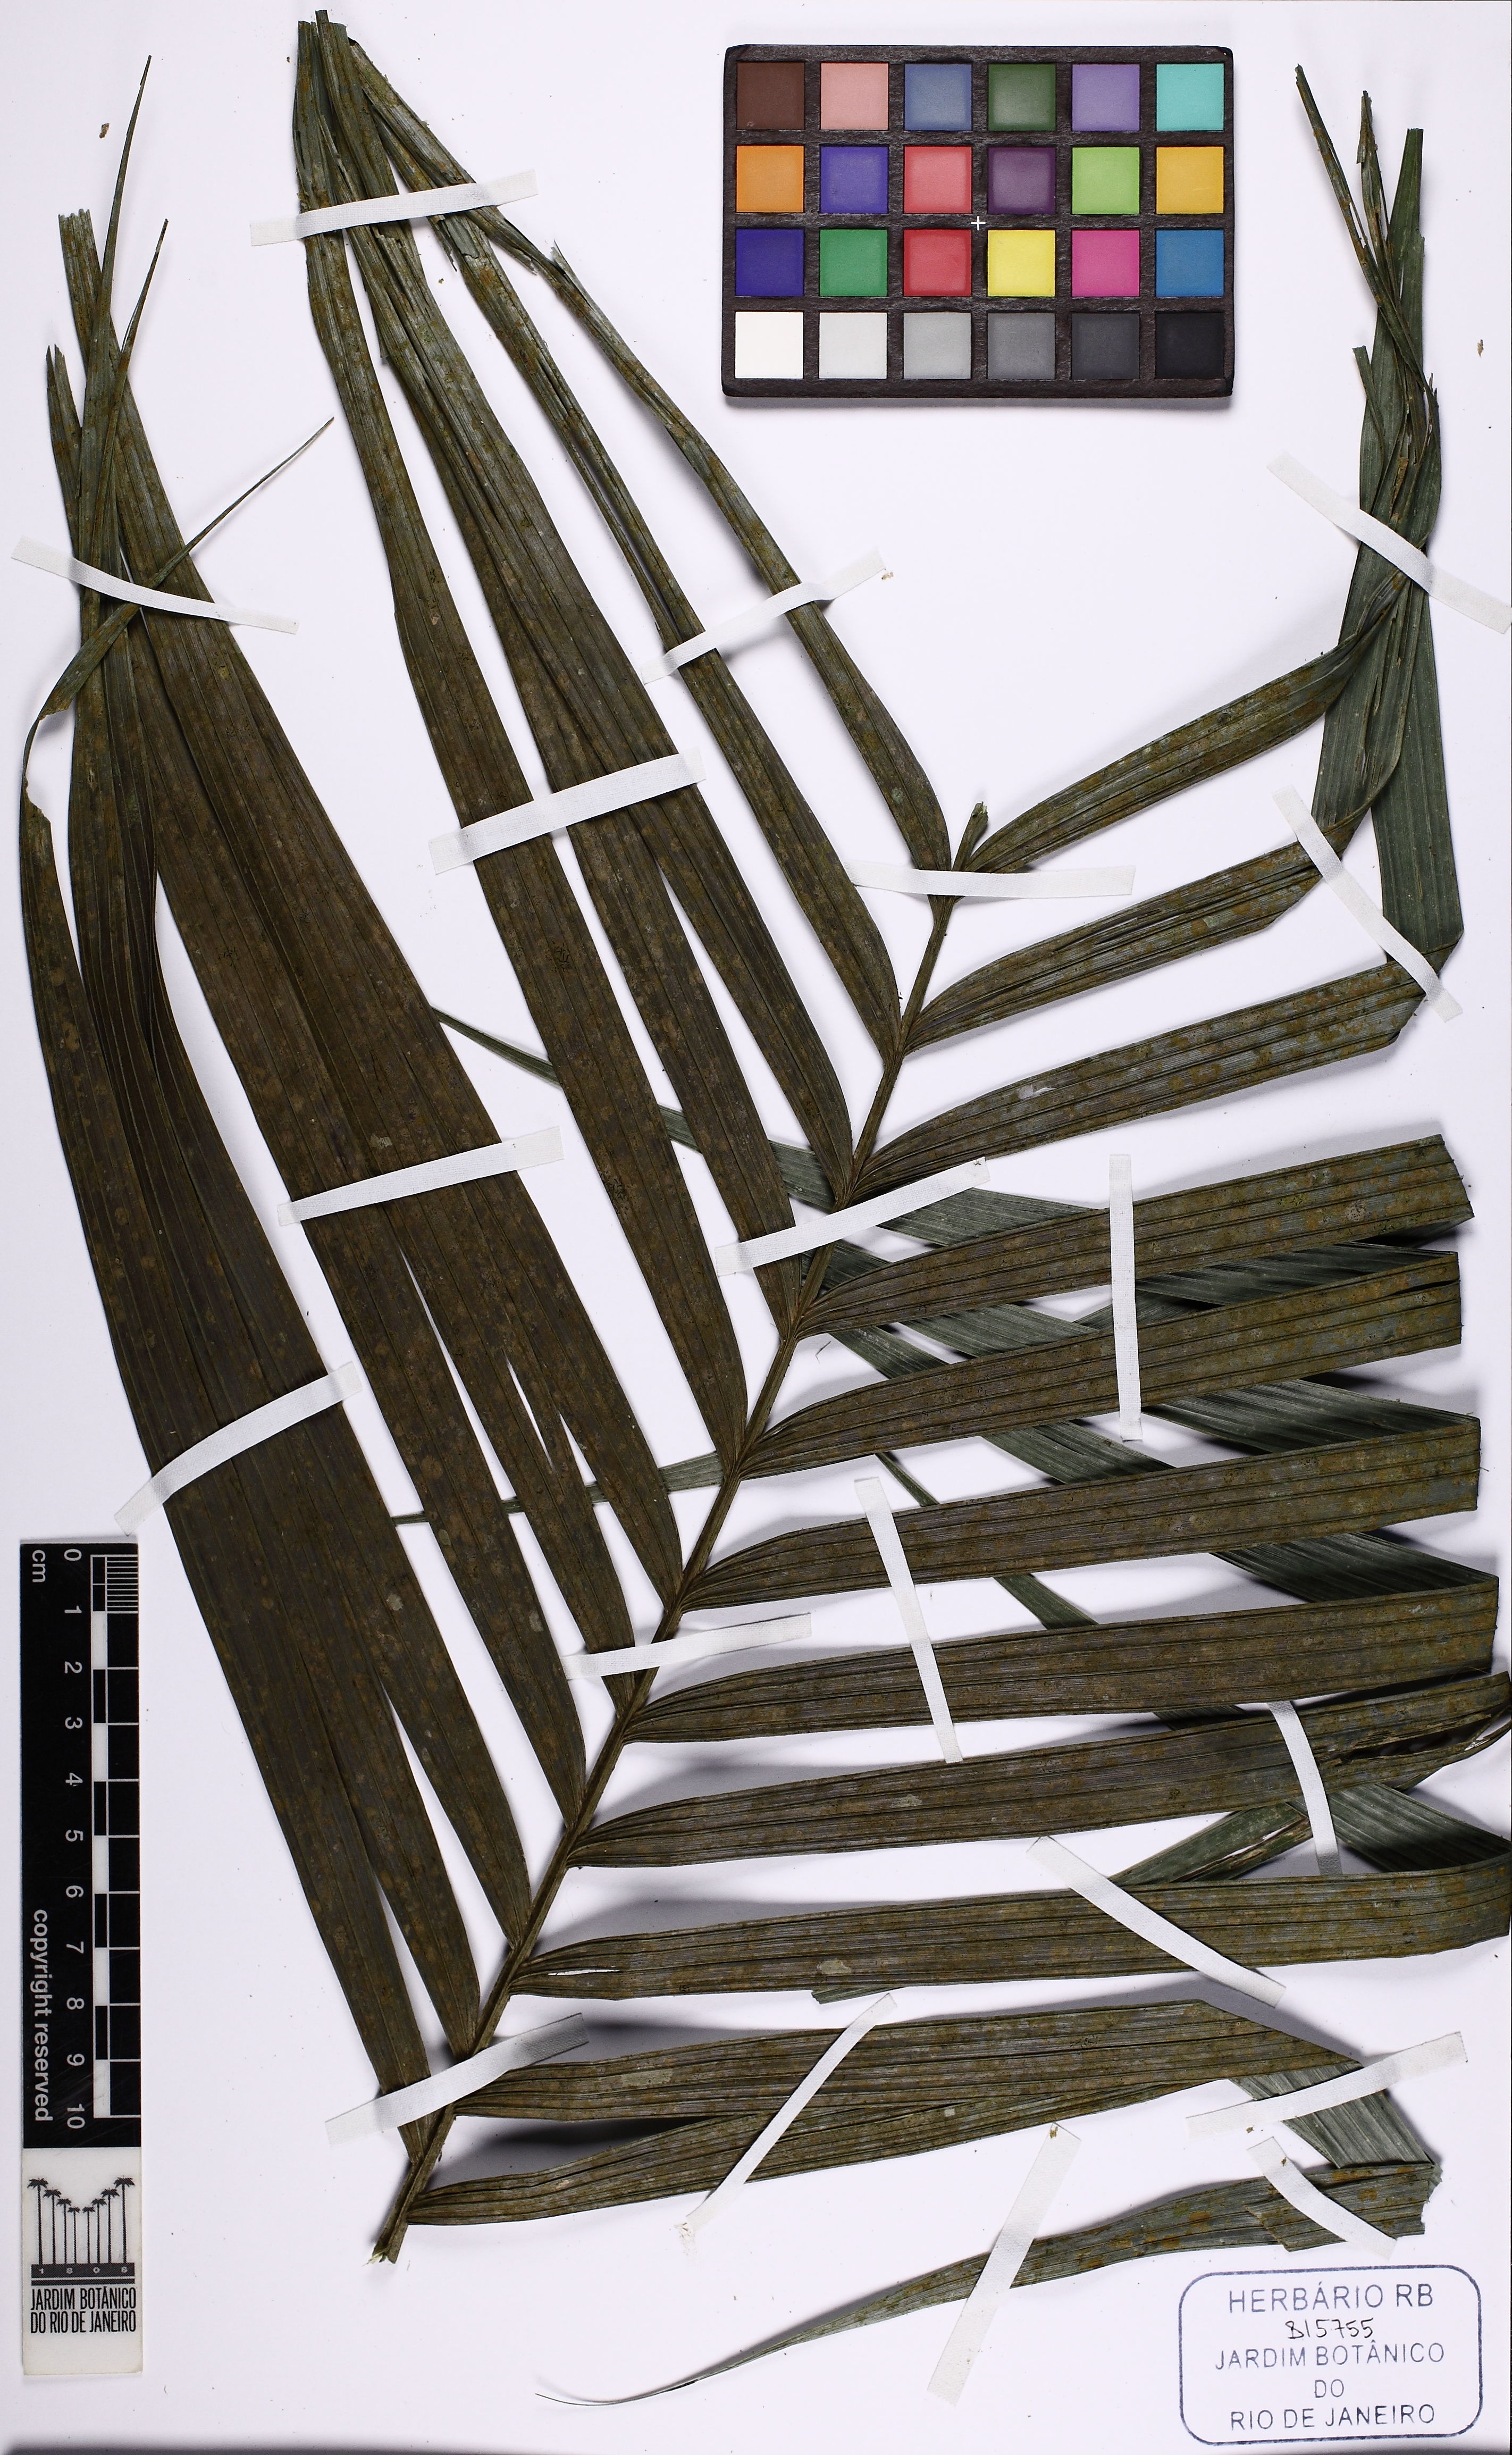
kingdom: Plantae
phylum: Tracheophyta
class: Liliopsida
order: Arecales
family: Arecaceae
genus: Geonoma
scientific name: Geonoma schottiana
